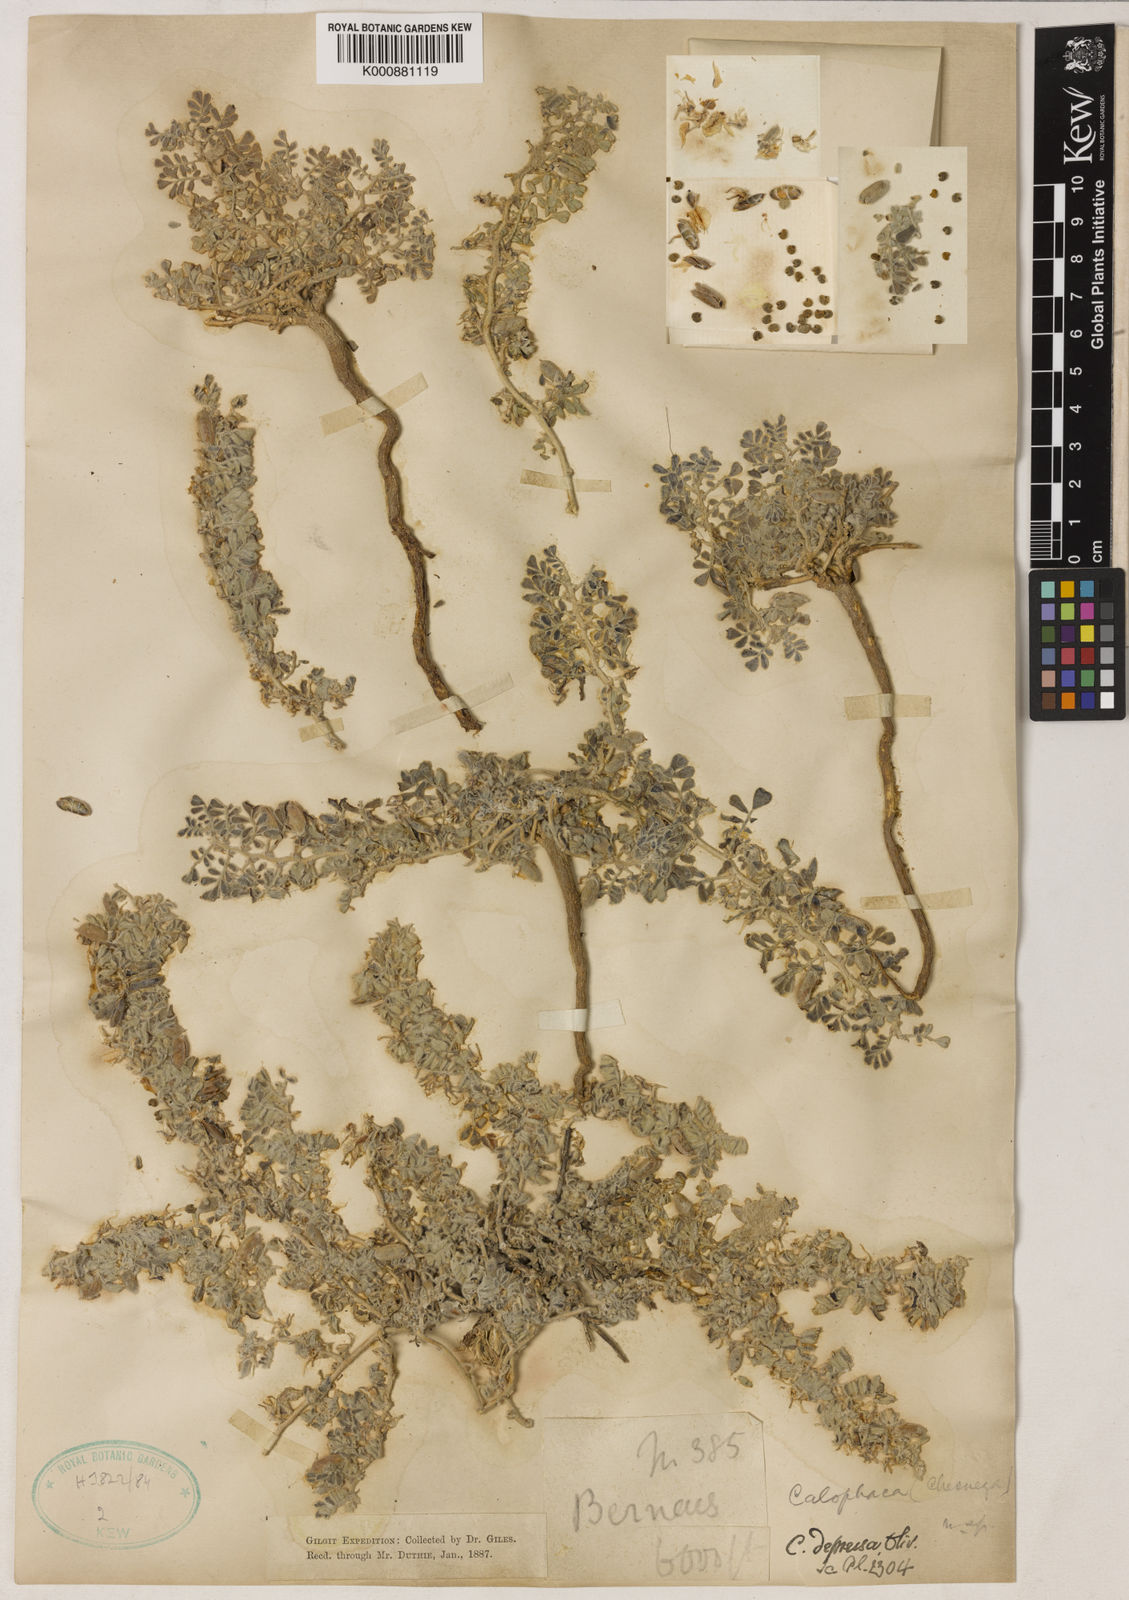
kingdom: Plantae
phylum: Tracheophyta
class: Magnoliopsida
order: Fabales
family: Fabaceae
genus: Chesneya
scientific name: Chesneya depressa
